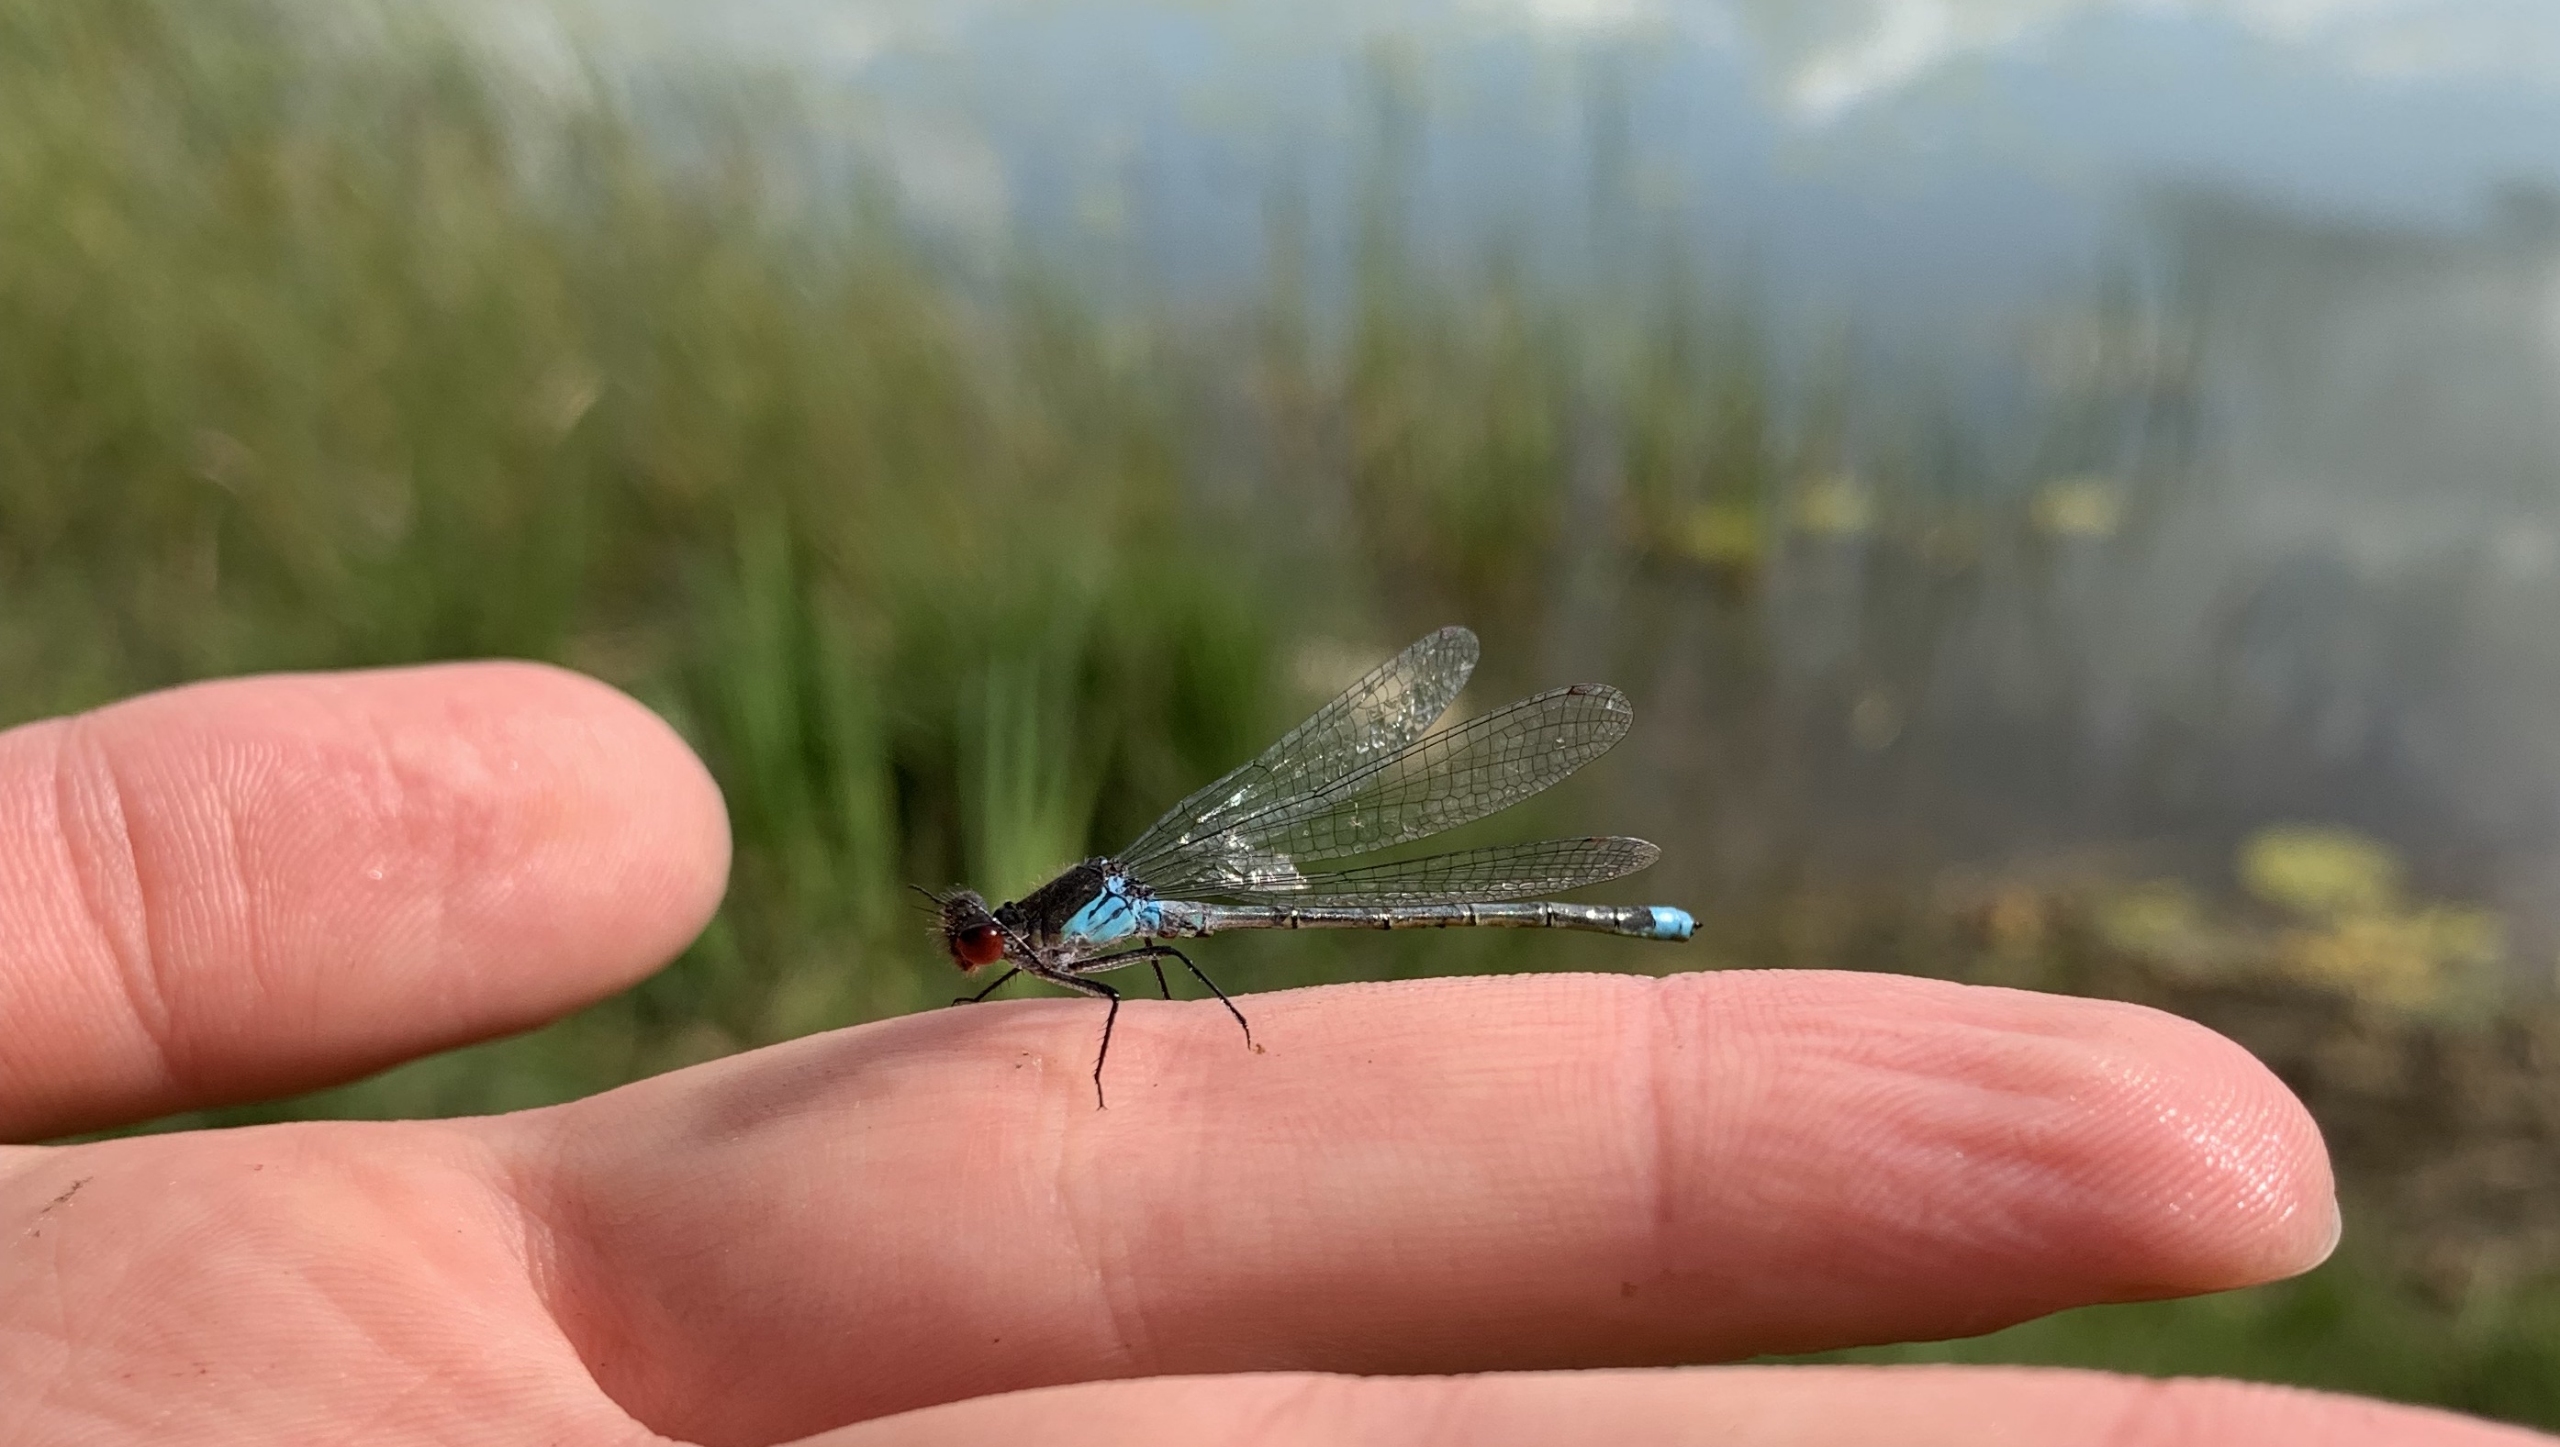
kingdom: Animalia
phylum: Arthropoda
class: Insecta
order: Odonata
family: Coenagrionidae
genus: Erythromma
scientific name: Erythromma najas
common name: Rødøjet vandnymfe
